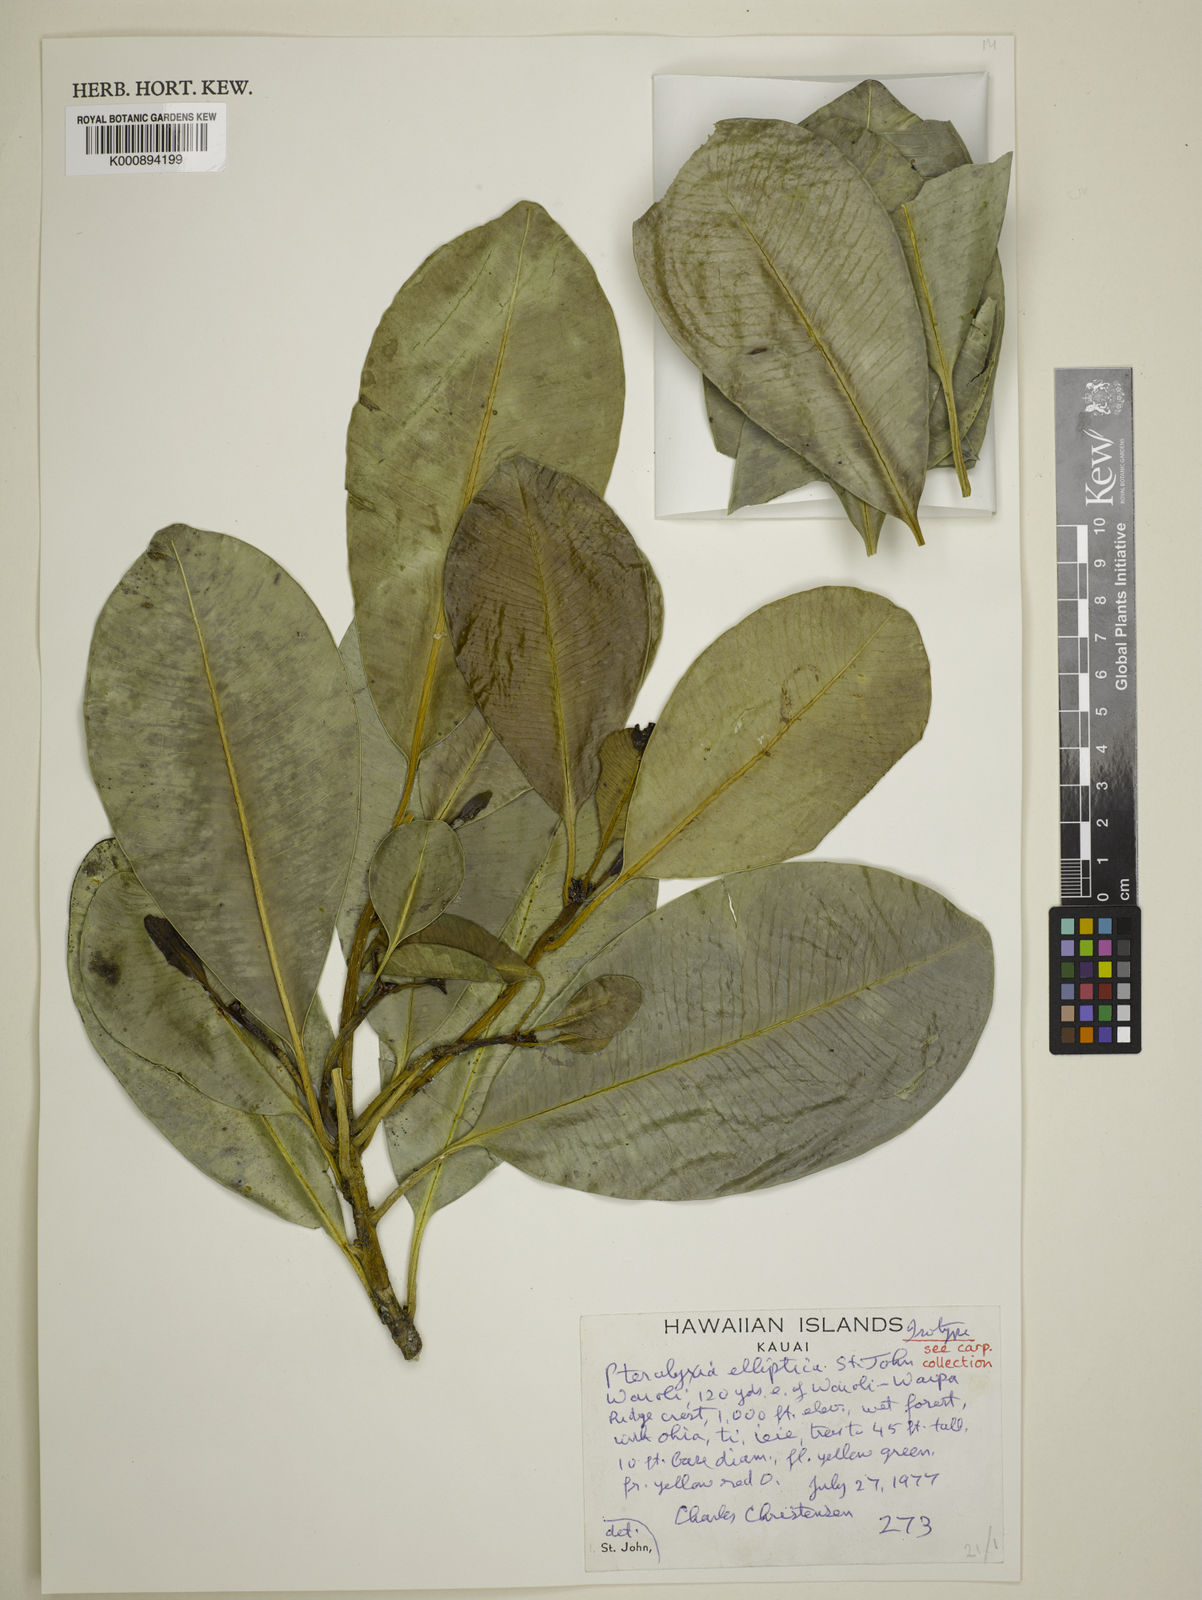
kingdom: Plantae
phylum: Tracheophyta
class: Magnoliopsida
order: Gentianales
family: Apocynaceae
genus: Alyxia
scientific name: Alyxia
